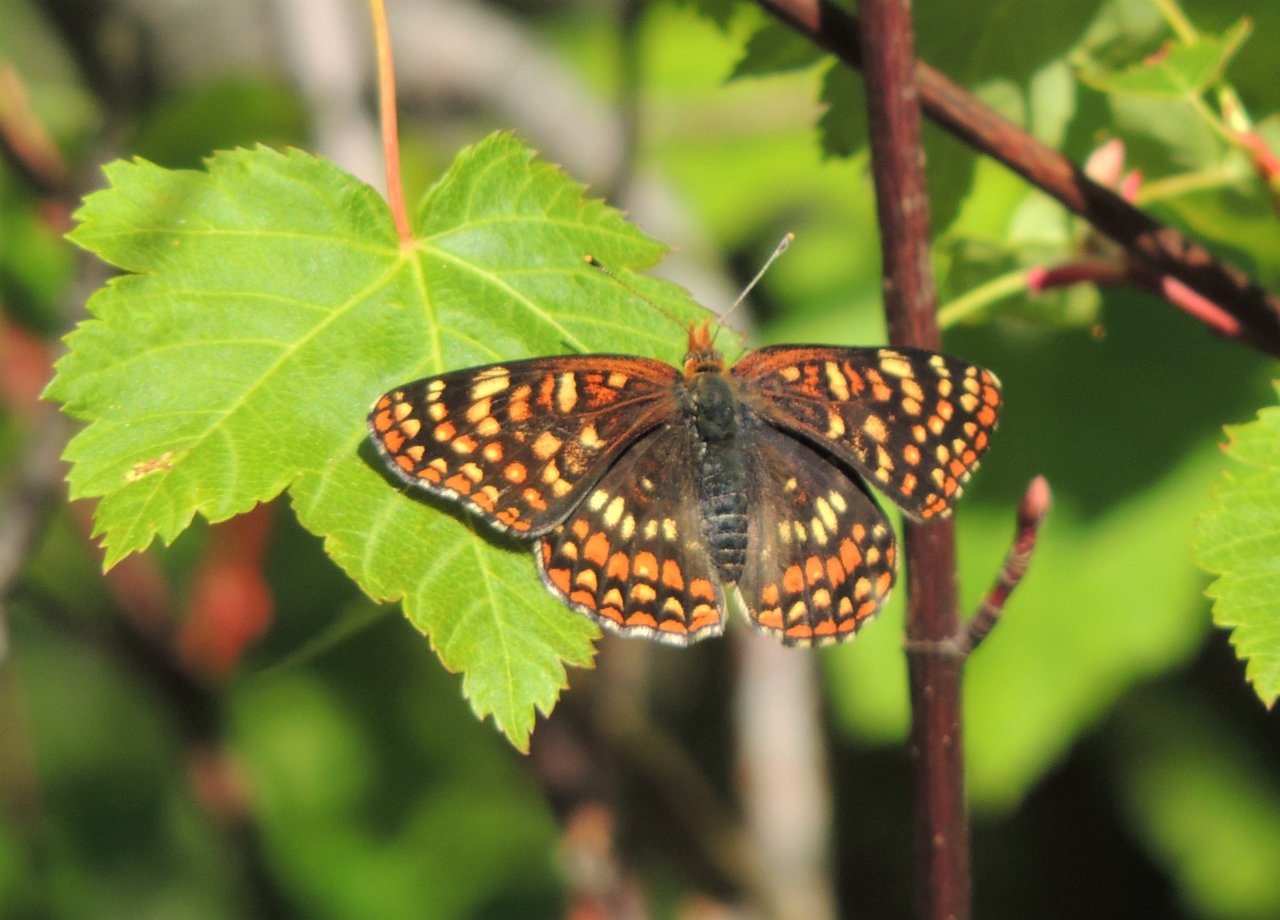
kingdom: Animalia
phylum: Arthropoda
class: Insecta
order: Lepidoptera
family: Nymphalidae
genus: Chlosyne
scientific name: Chlosyne palla
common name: Northern Checkerspot
